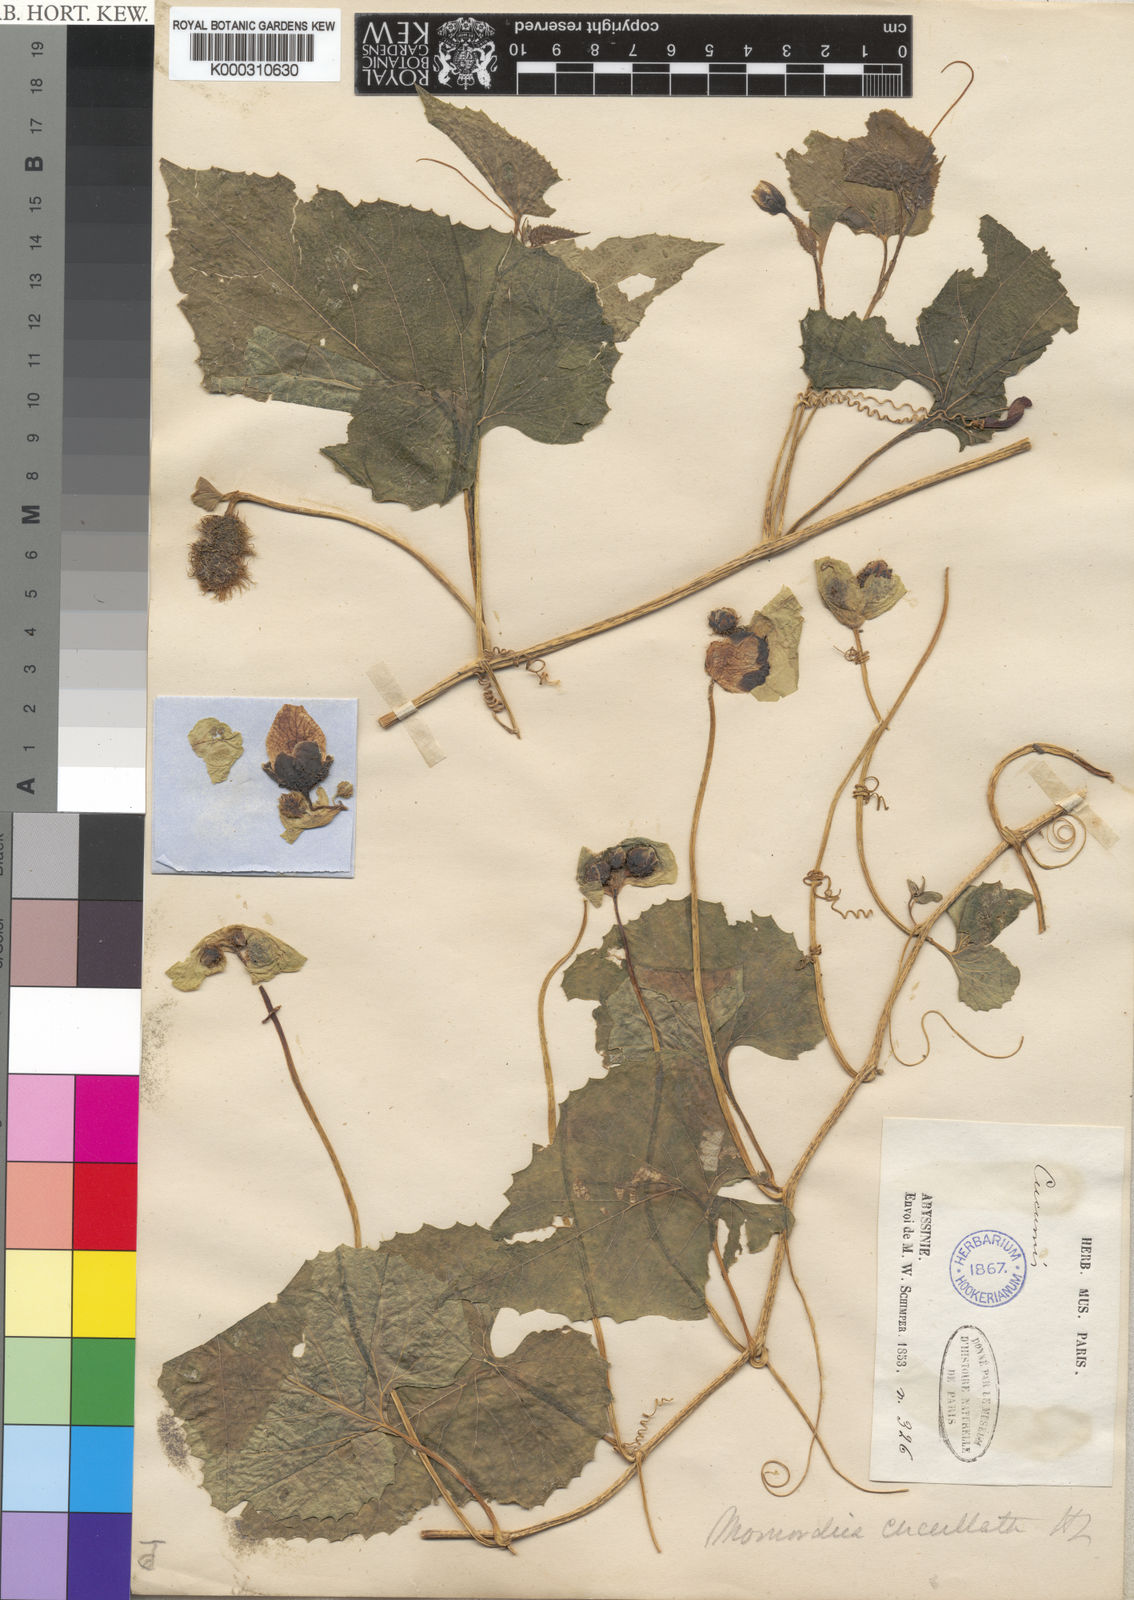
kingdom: Plantae
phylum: Tracheophyta
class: Magnoliopsida
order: Cucurbitales
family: Cucurbitaceae
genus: Momordica
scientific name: Momordica foetida
